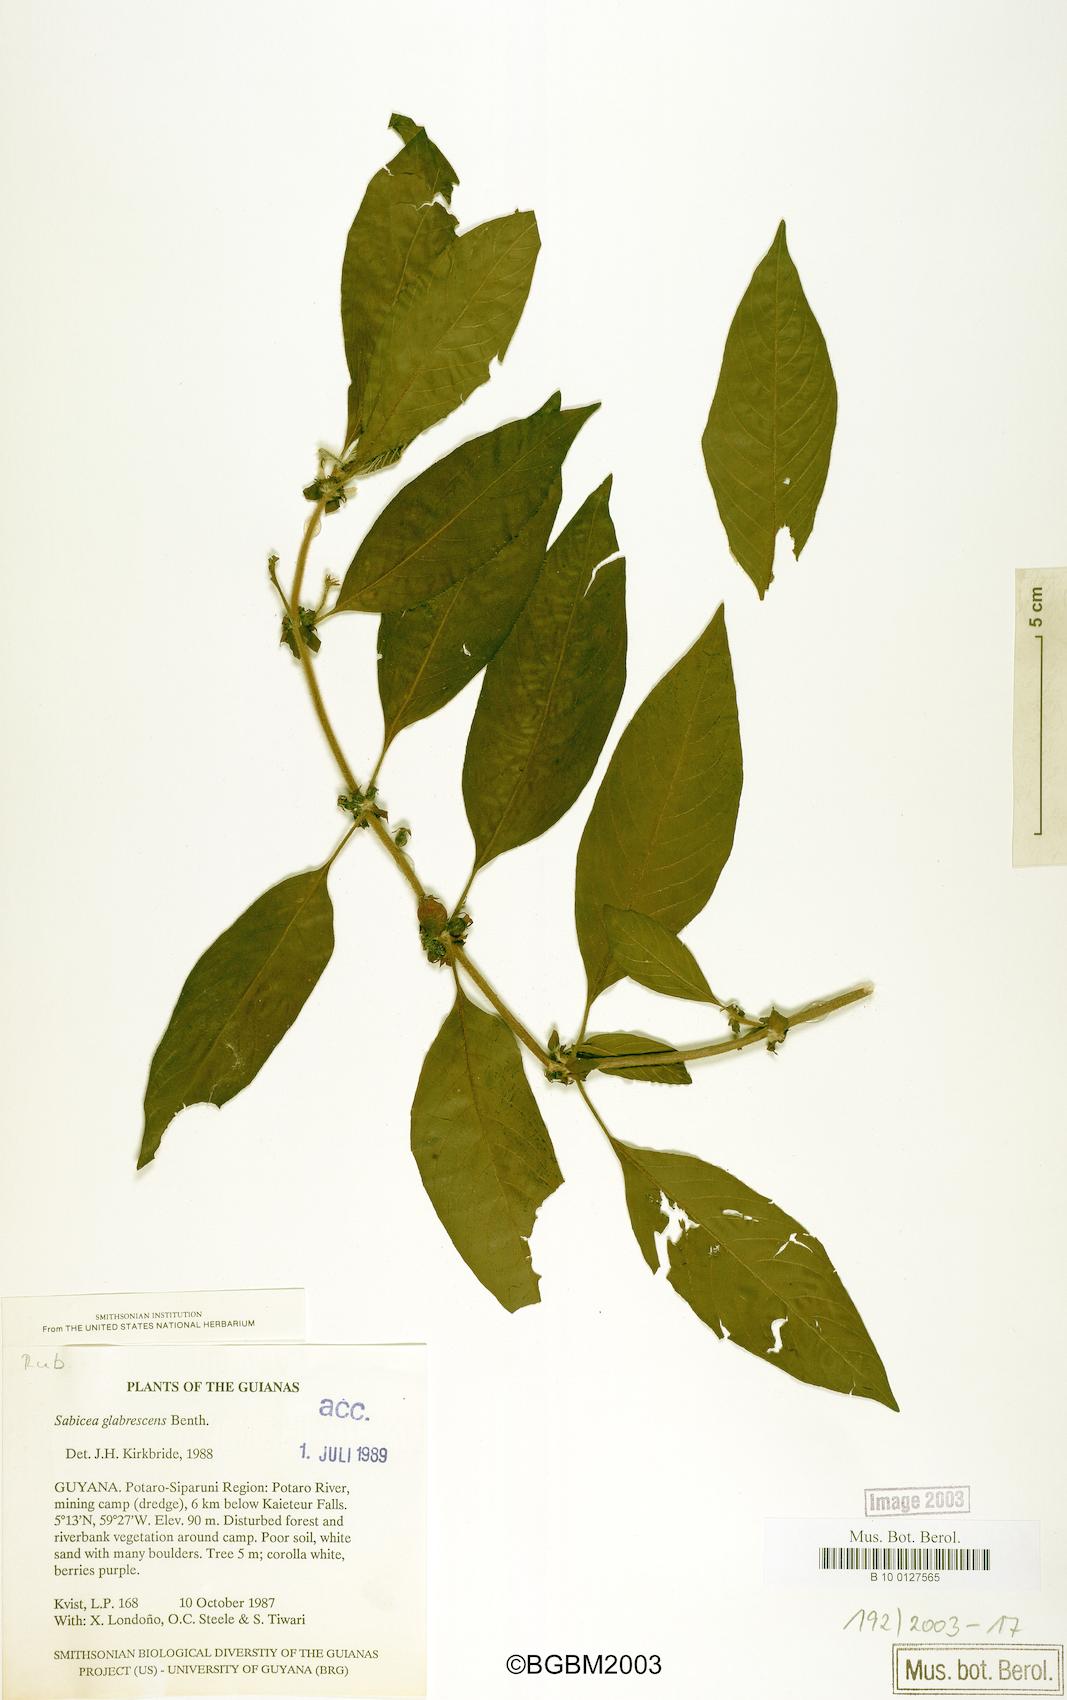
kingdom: Plantae
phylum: Tracheophyta
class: Magnoliopsida
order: Gentianales
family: Rubiaceae
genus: Sabicea
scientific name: Sabicea glabrescens
